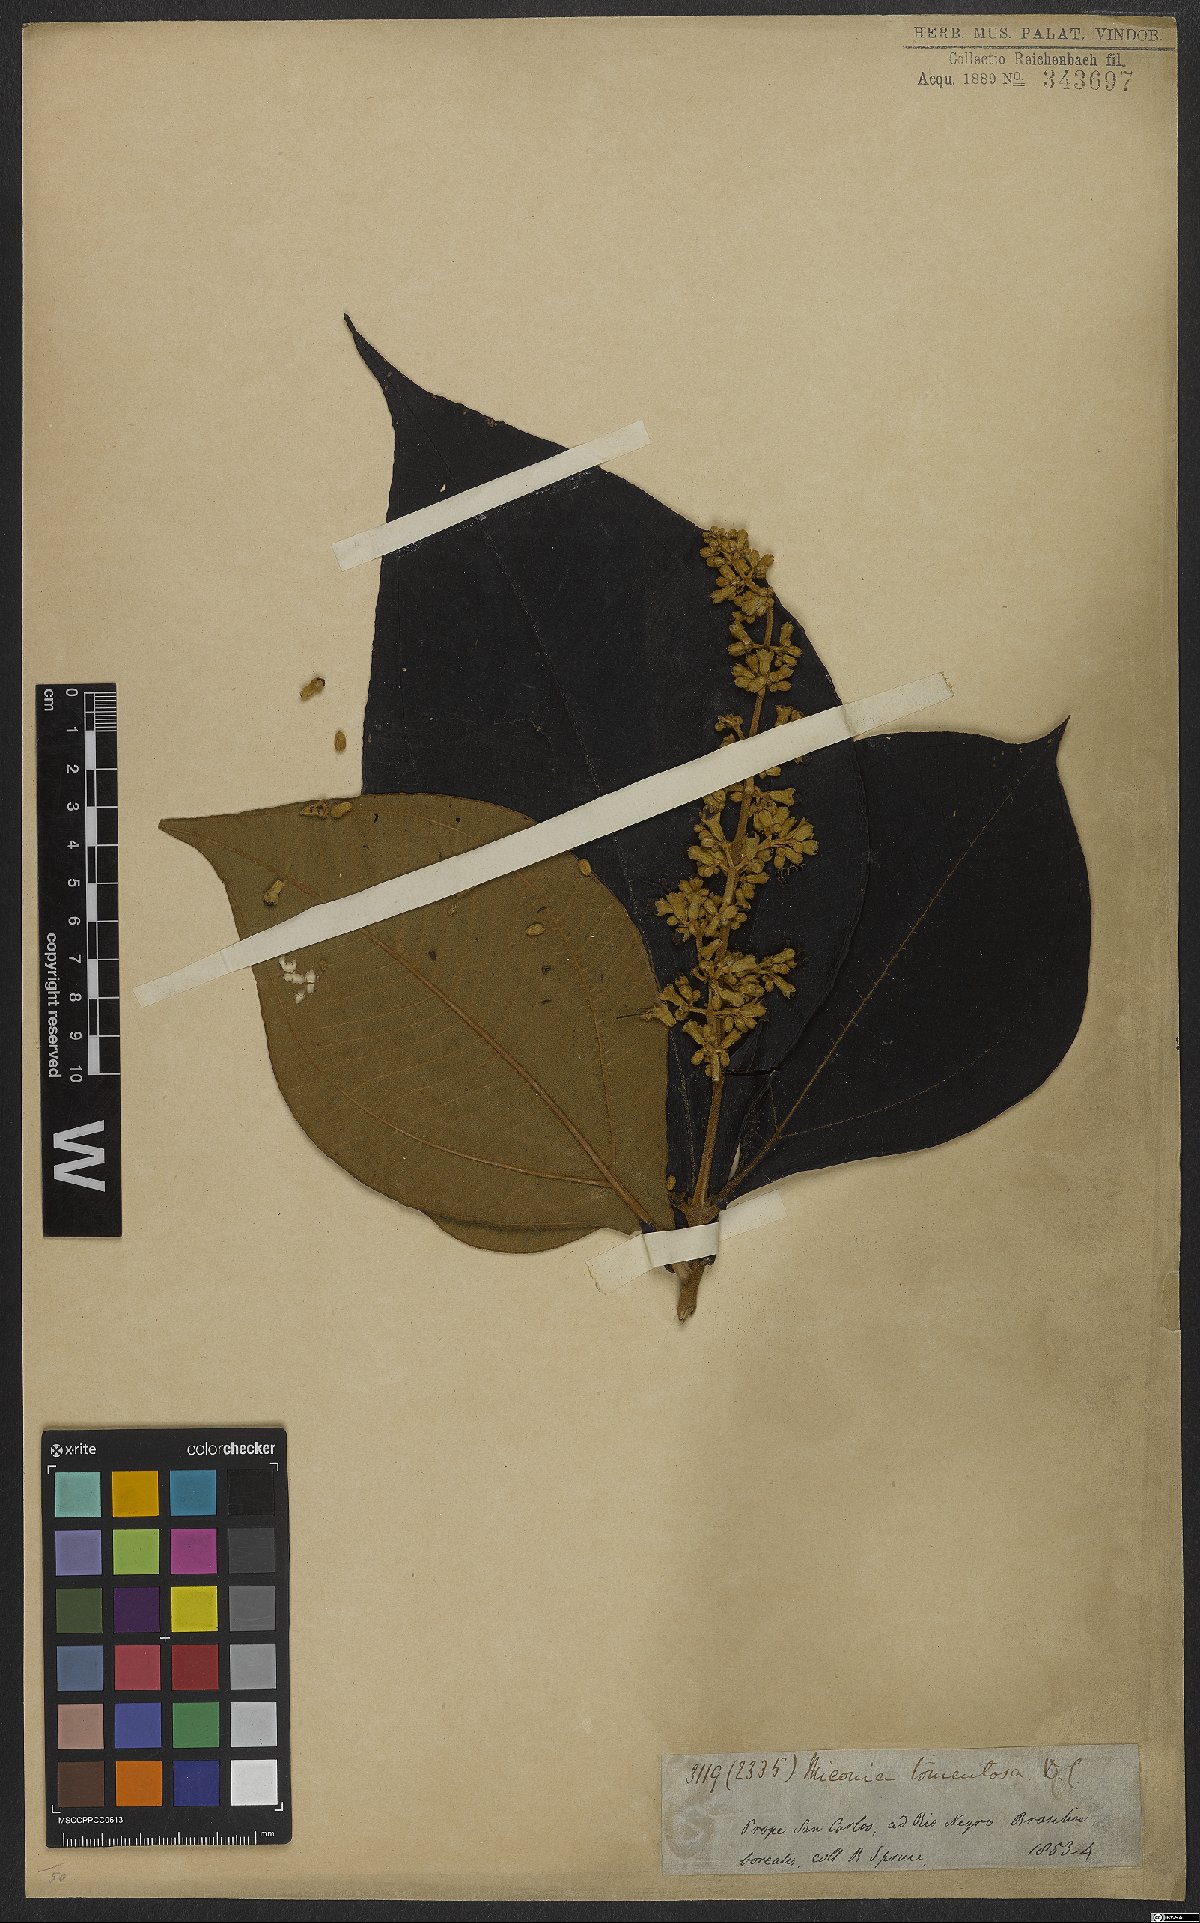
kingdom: Plantae
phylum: Tracheophyta
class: Magnoliopsida
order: Myrtales
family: Melastomataceae
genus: Miconia
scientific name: Miconia tomentosa
